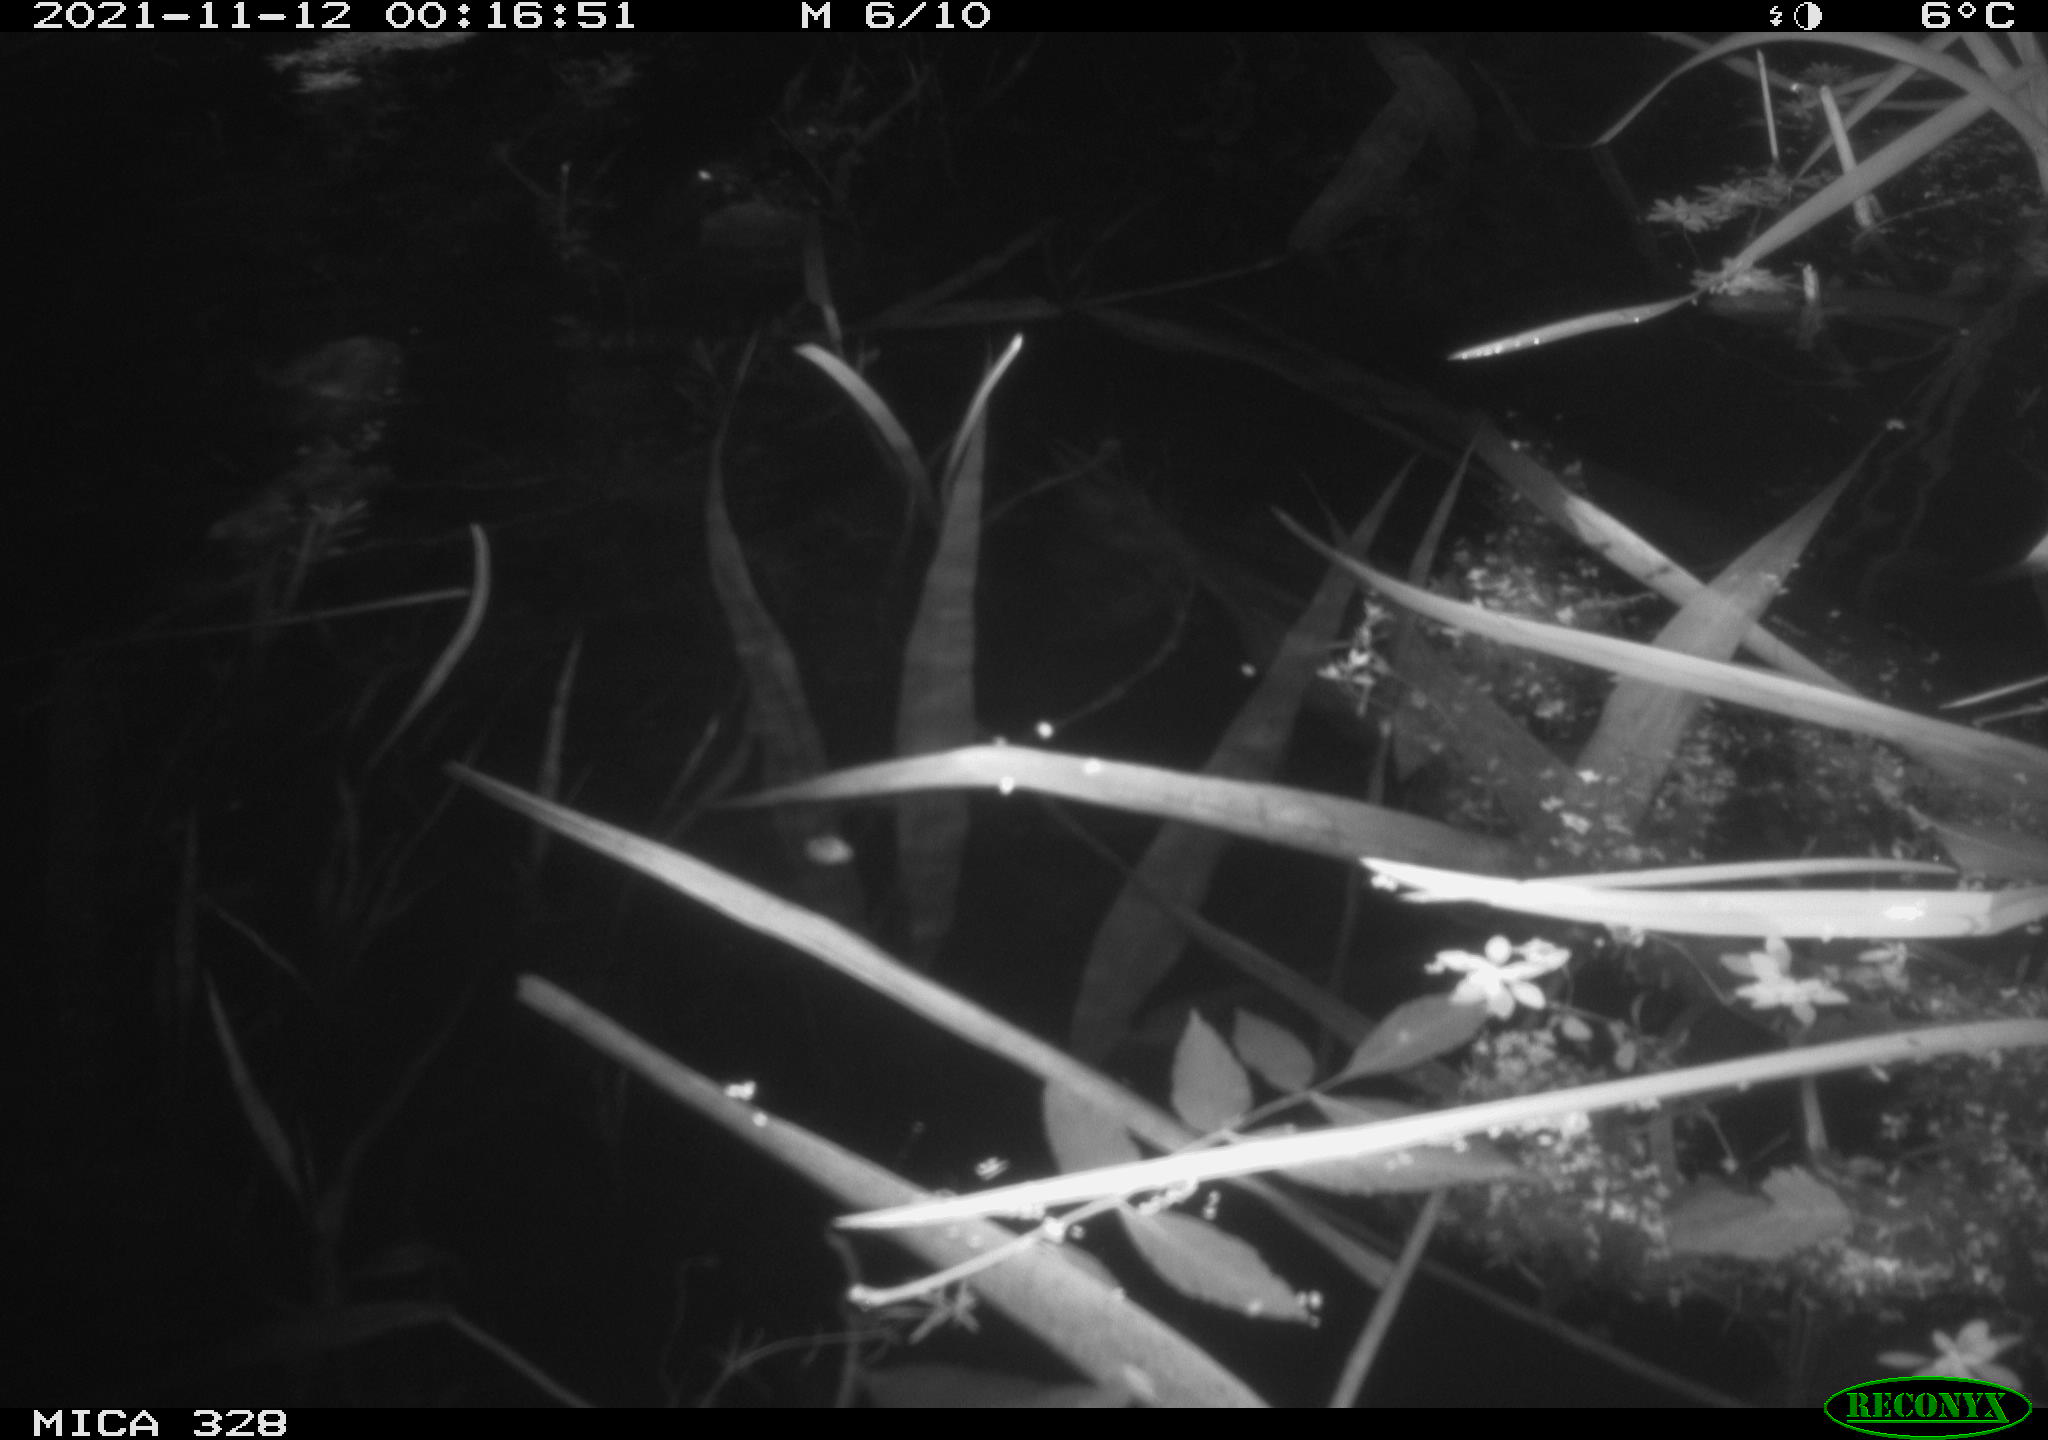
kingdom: Animalia
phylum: Chordata
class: Mammalia
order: Rodentia
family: Cricetidae
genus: Ondatra
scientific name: Ondatra zibethicus
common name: Muskrat
